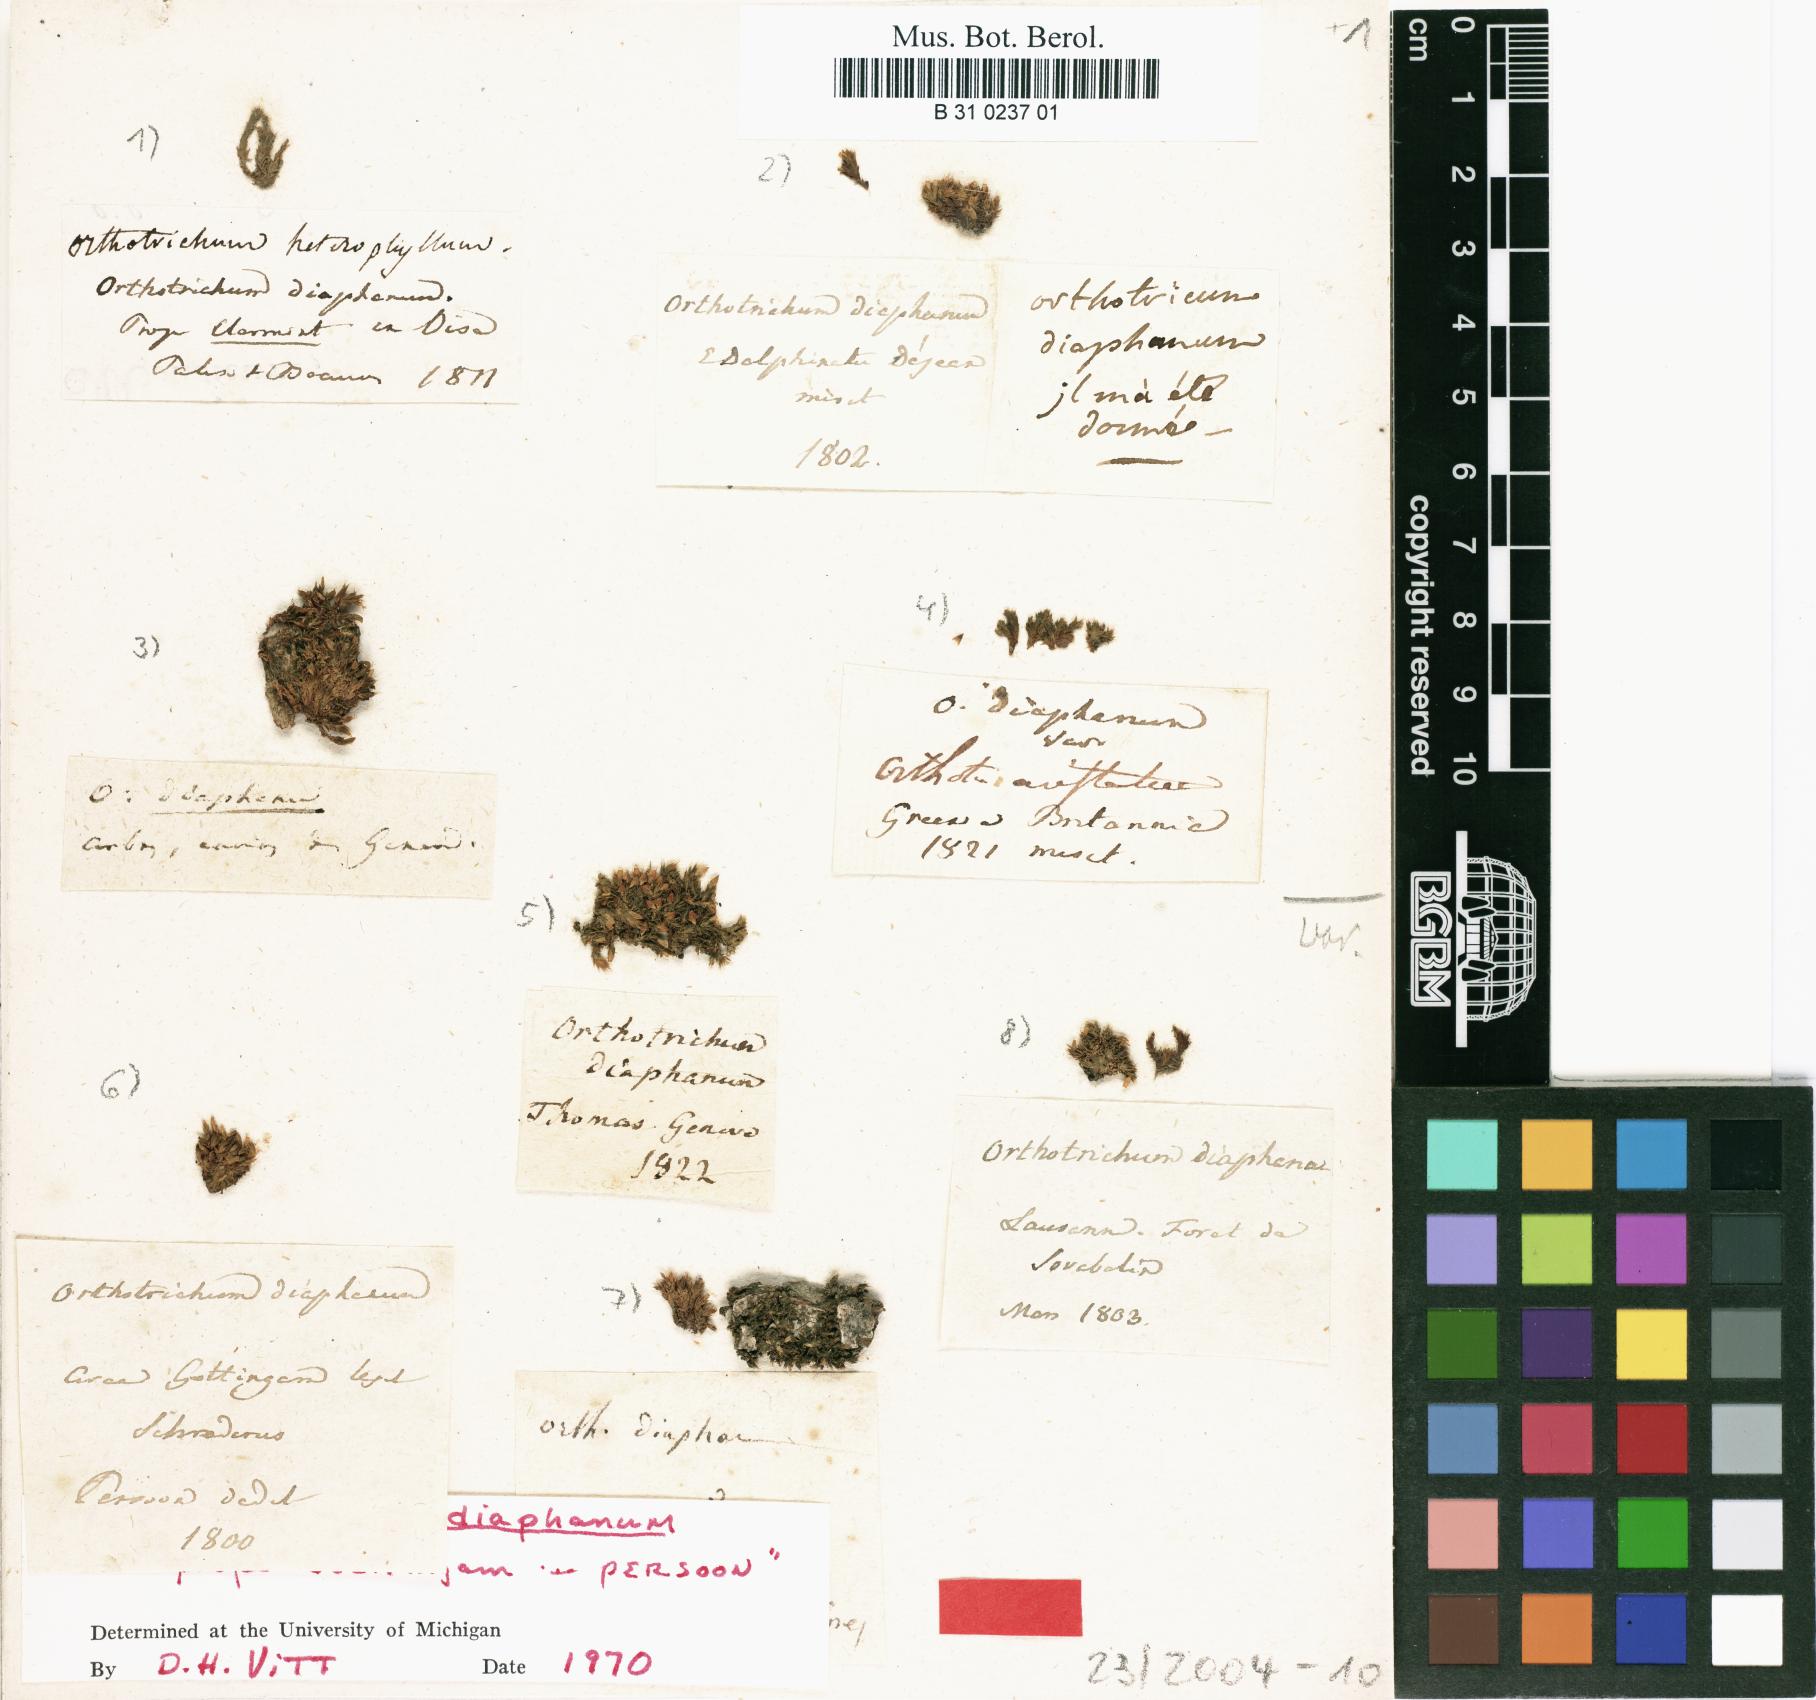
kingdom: Plantae
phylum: Bryophyta
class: Bryopsida
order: Orthotrichales
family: Orthotrichaceae
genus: Orthotrichum
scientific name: Orthotrichum diaphanum
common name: White-tipped bristle-moss
